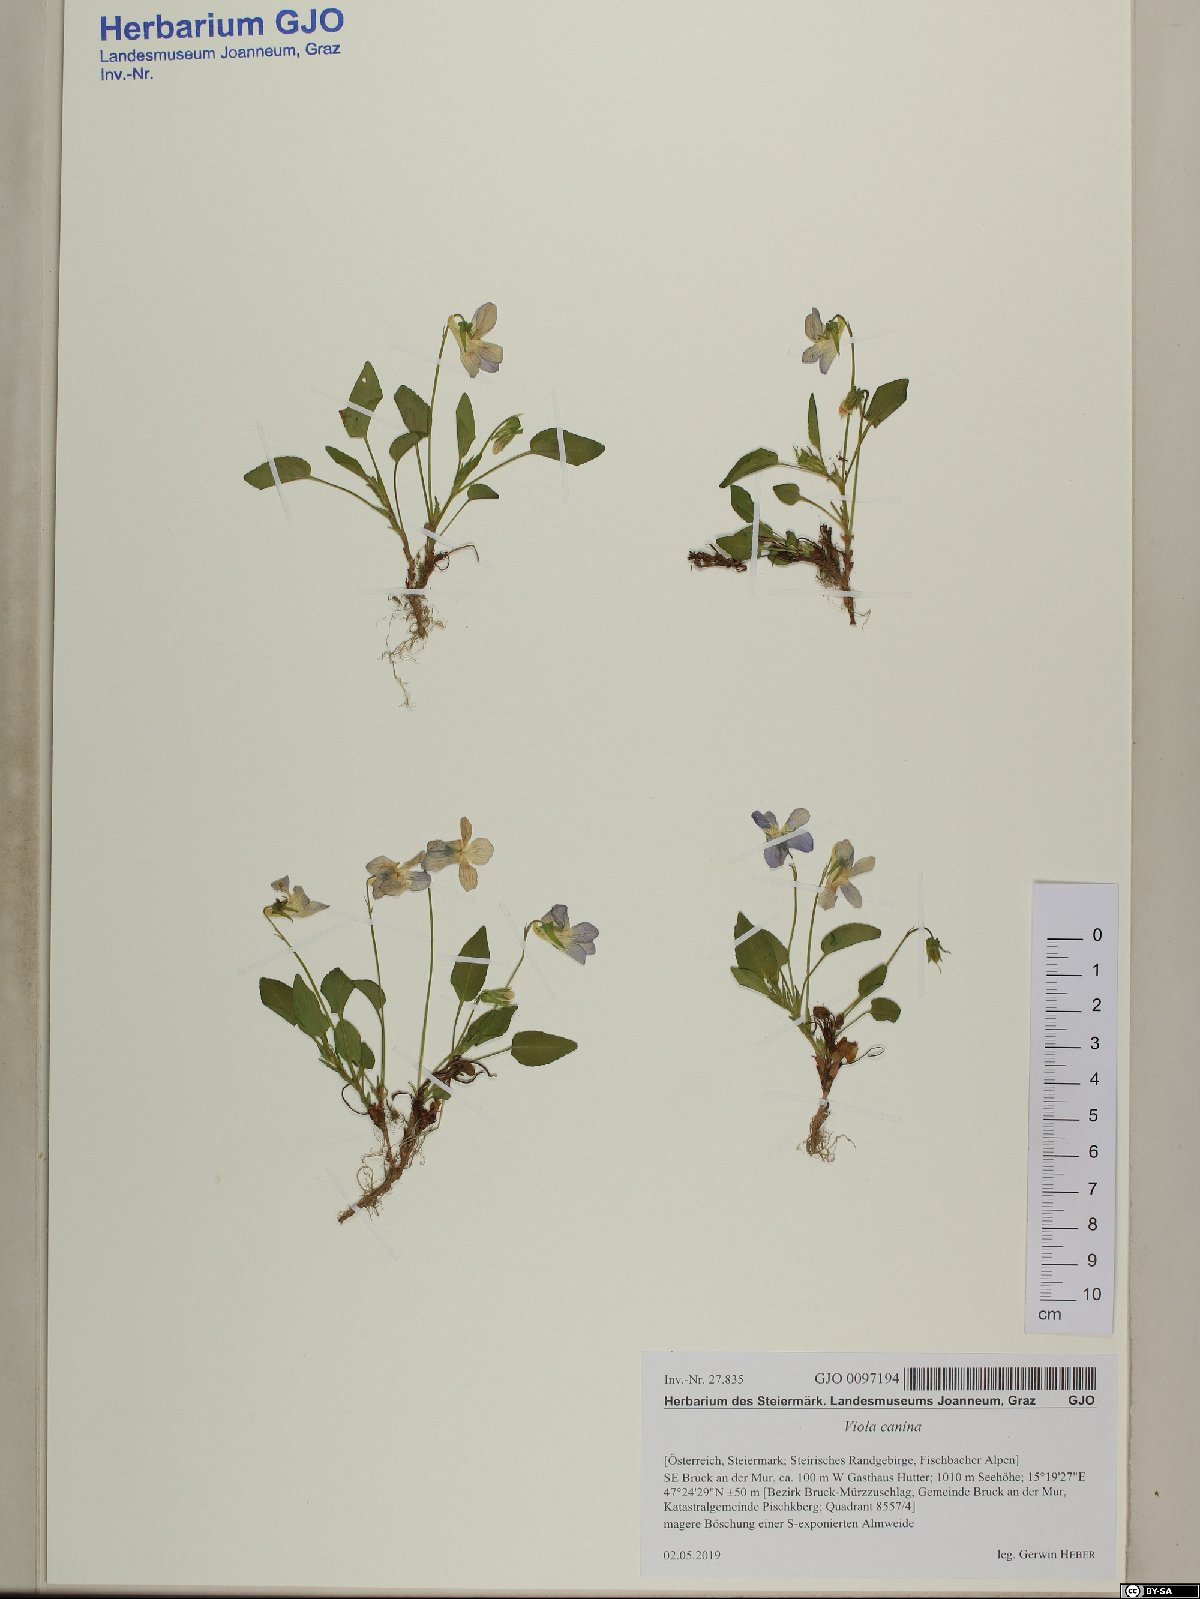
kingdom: Plantae
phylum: Tracheophyta
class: Magnoliopsida
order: Malpighiales
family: Violaceae
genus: Viola
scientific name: Viola canina
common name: Heath dog-violet
